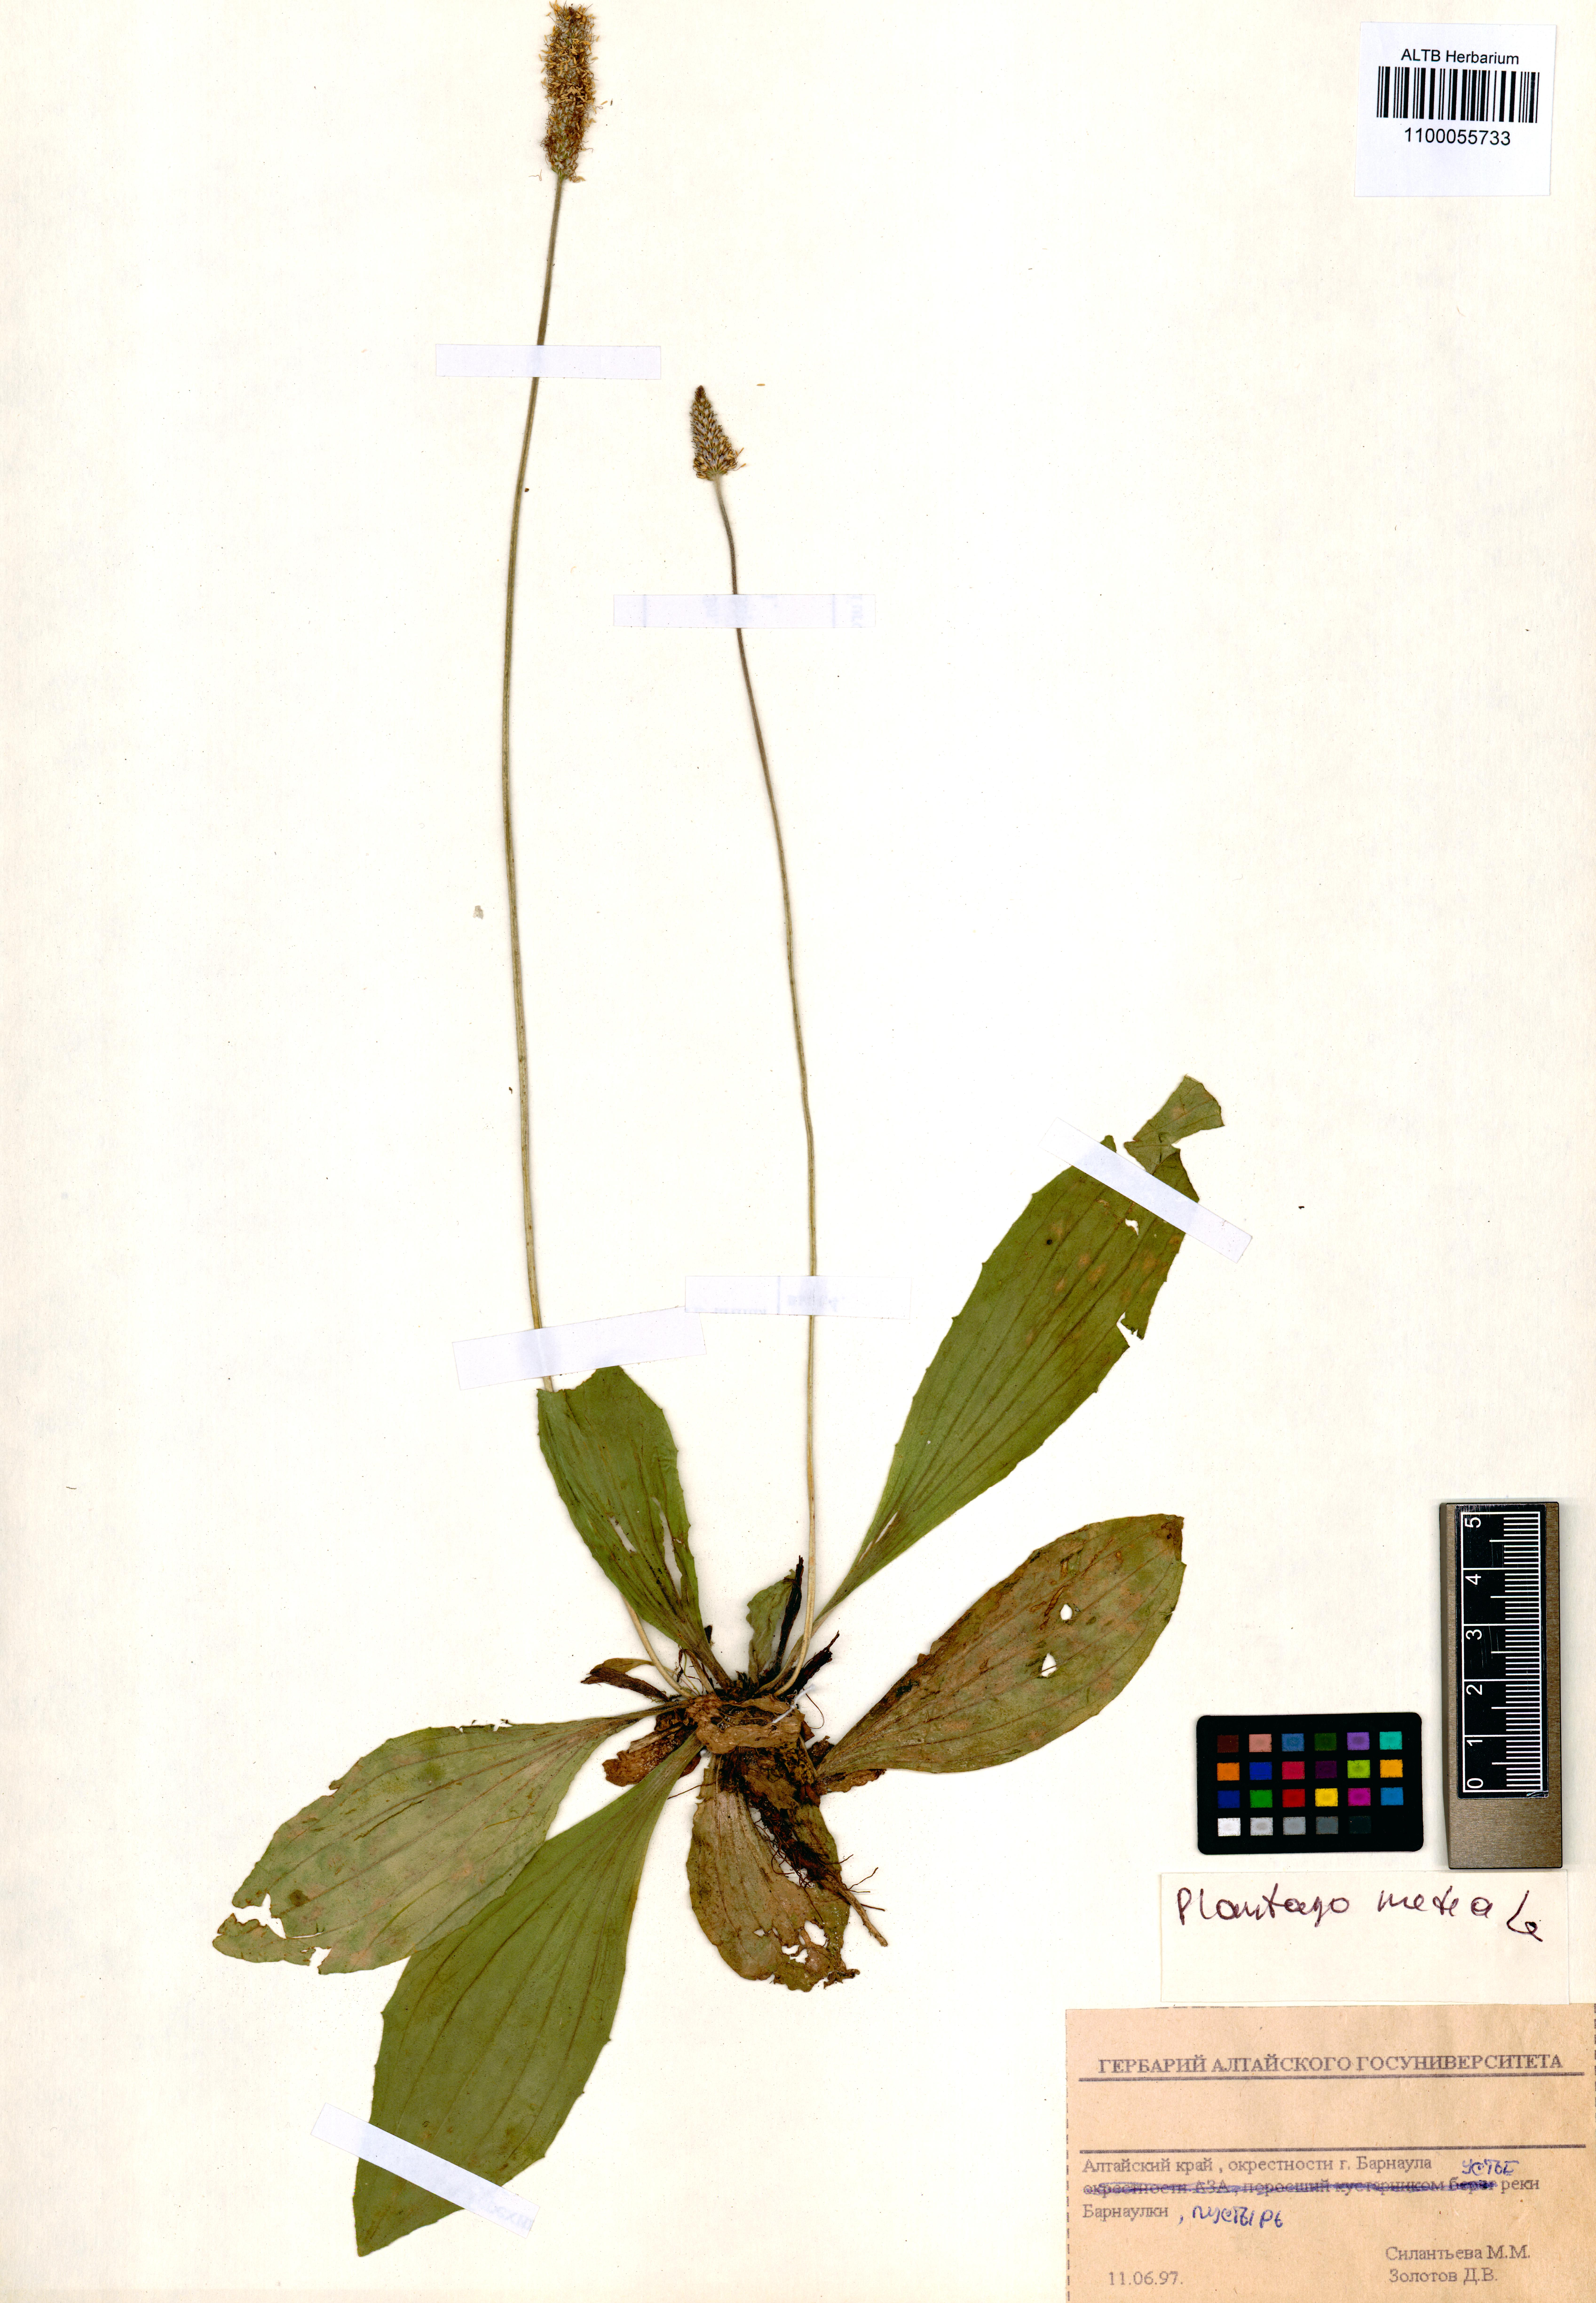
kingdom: Plantae
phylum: Tracheophyta
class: Magnoliopsida
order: Lamiales
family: Plantaginaceae
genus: Plantago
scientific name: Plantago media
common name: Hoary plantain
